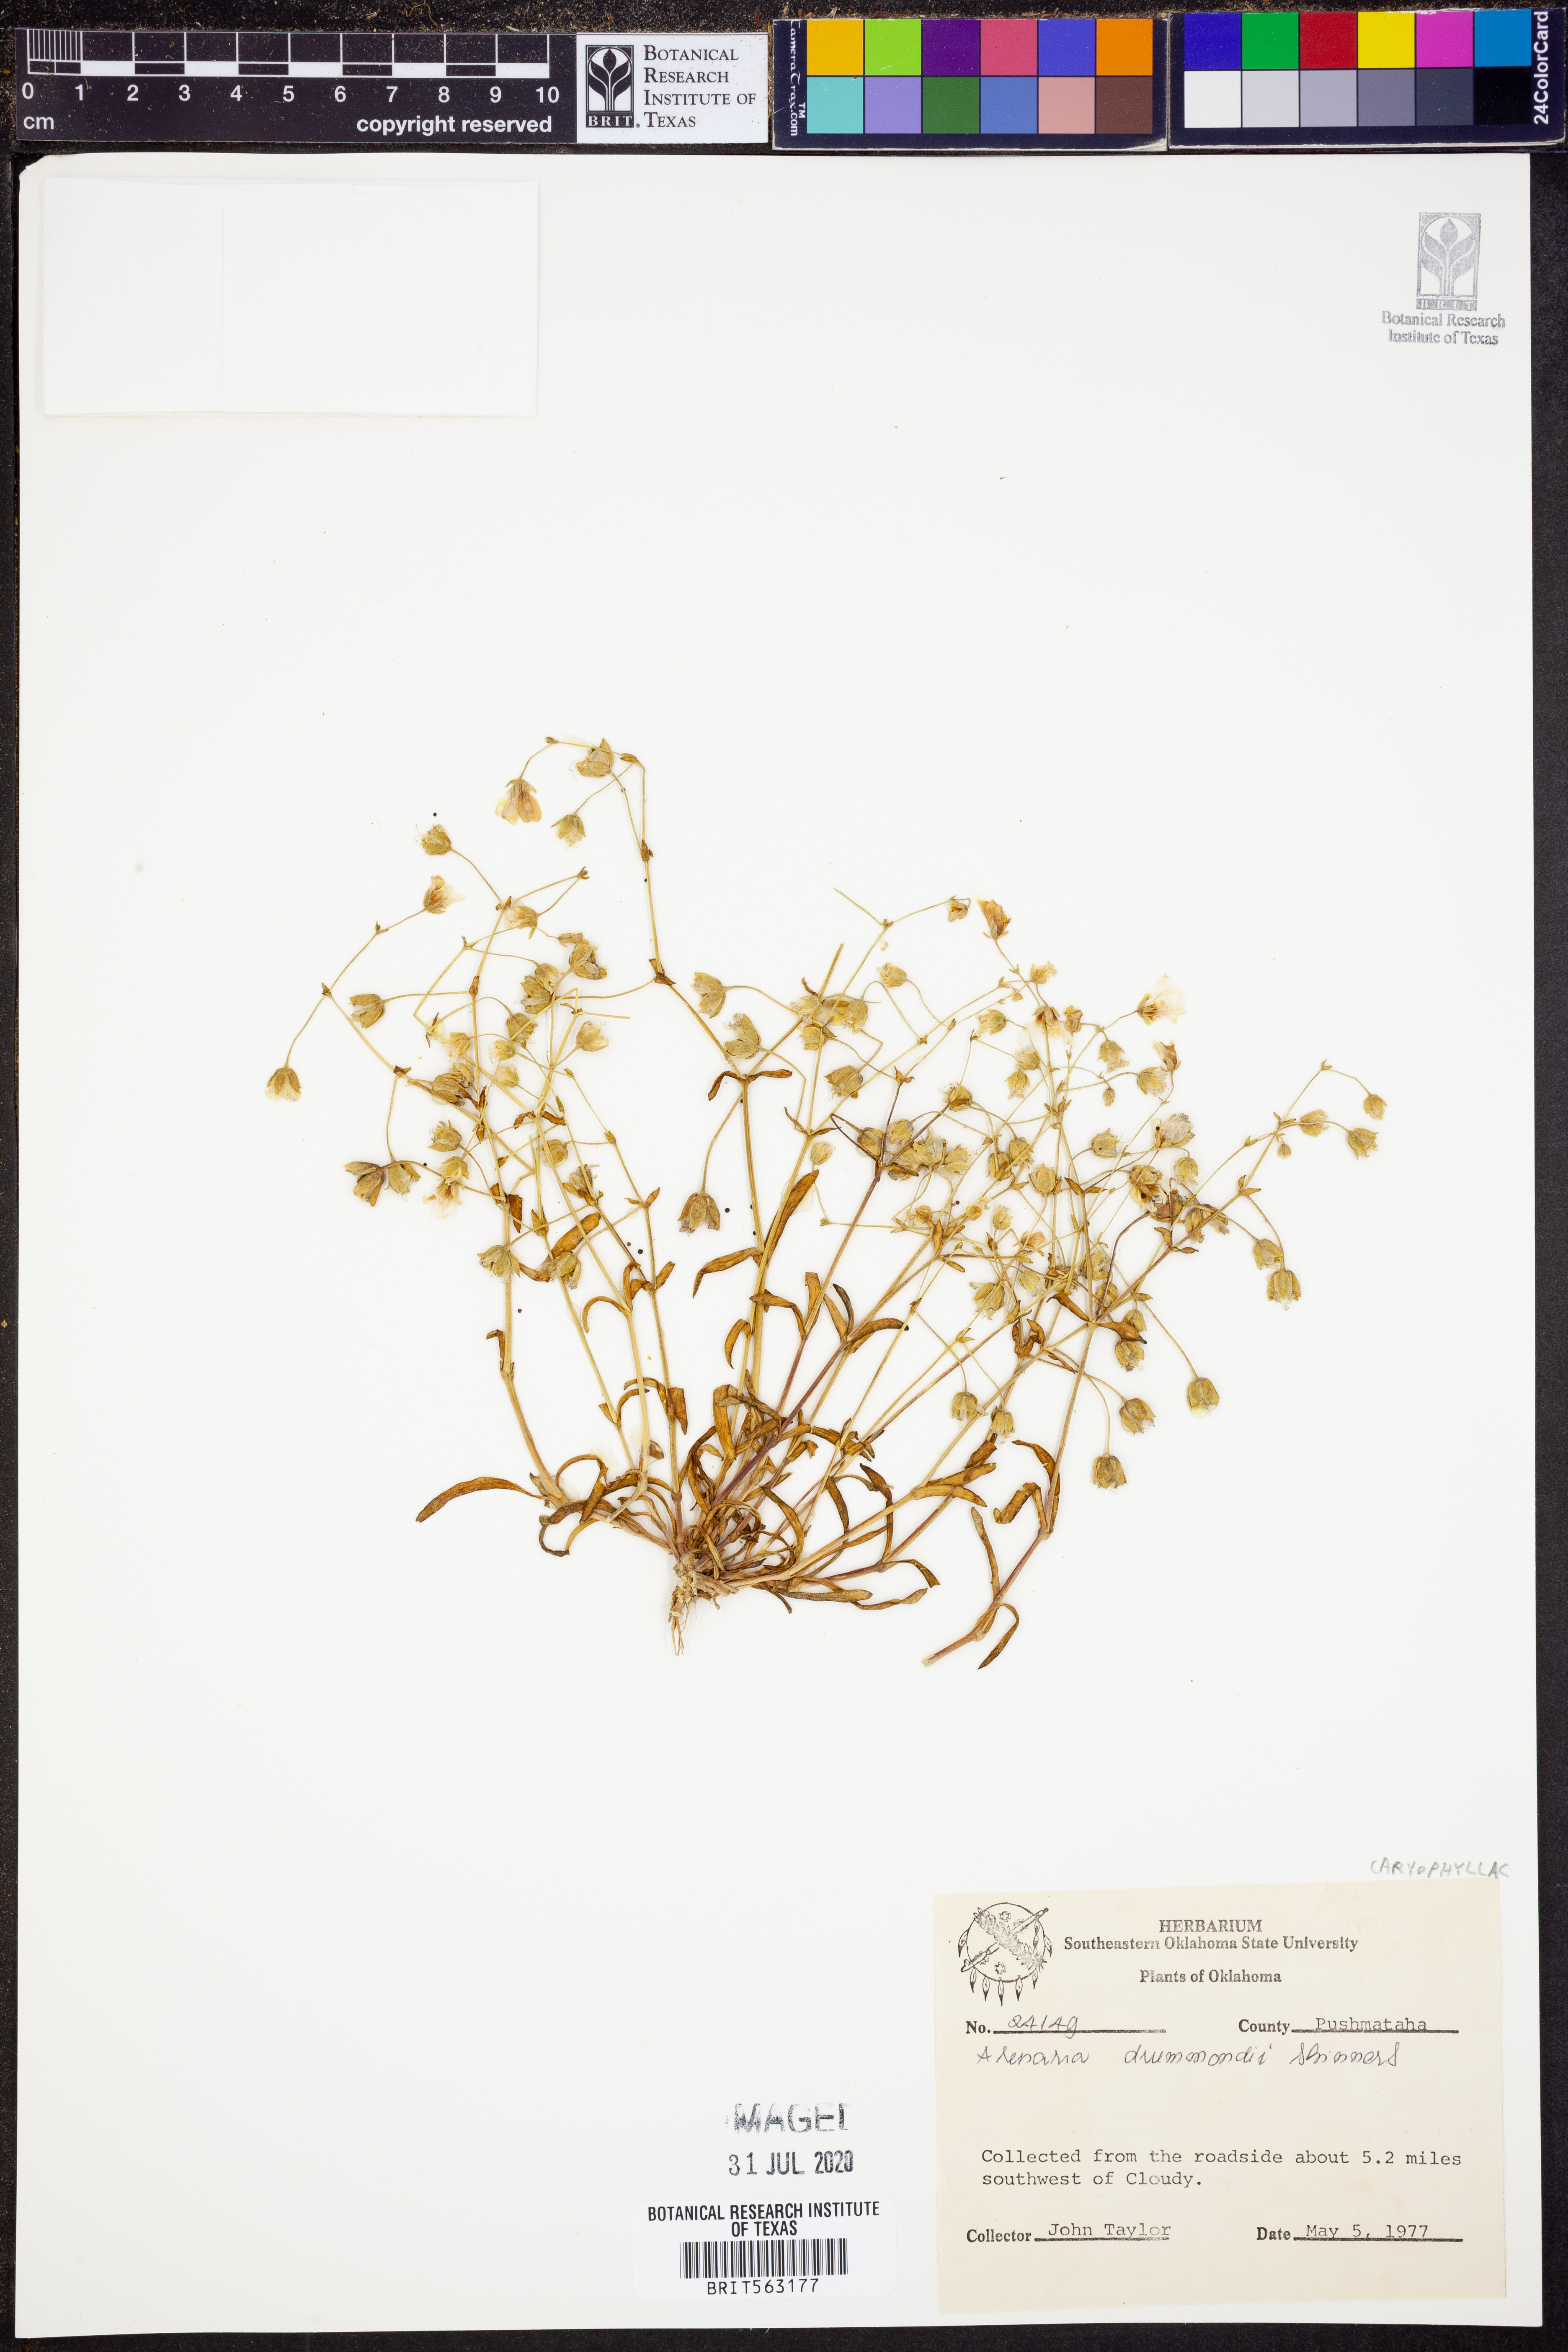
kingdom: Plantae
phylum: Tracheophyta
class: Magnoliopsida
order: Caryophyllales
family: Caryophyllaceae
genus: Geocarpon
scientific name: Geocarpon nuttallii
